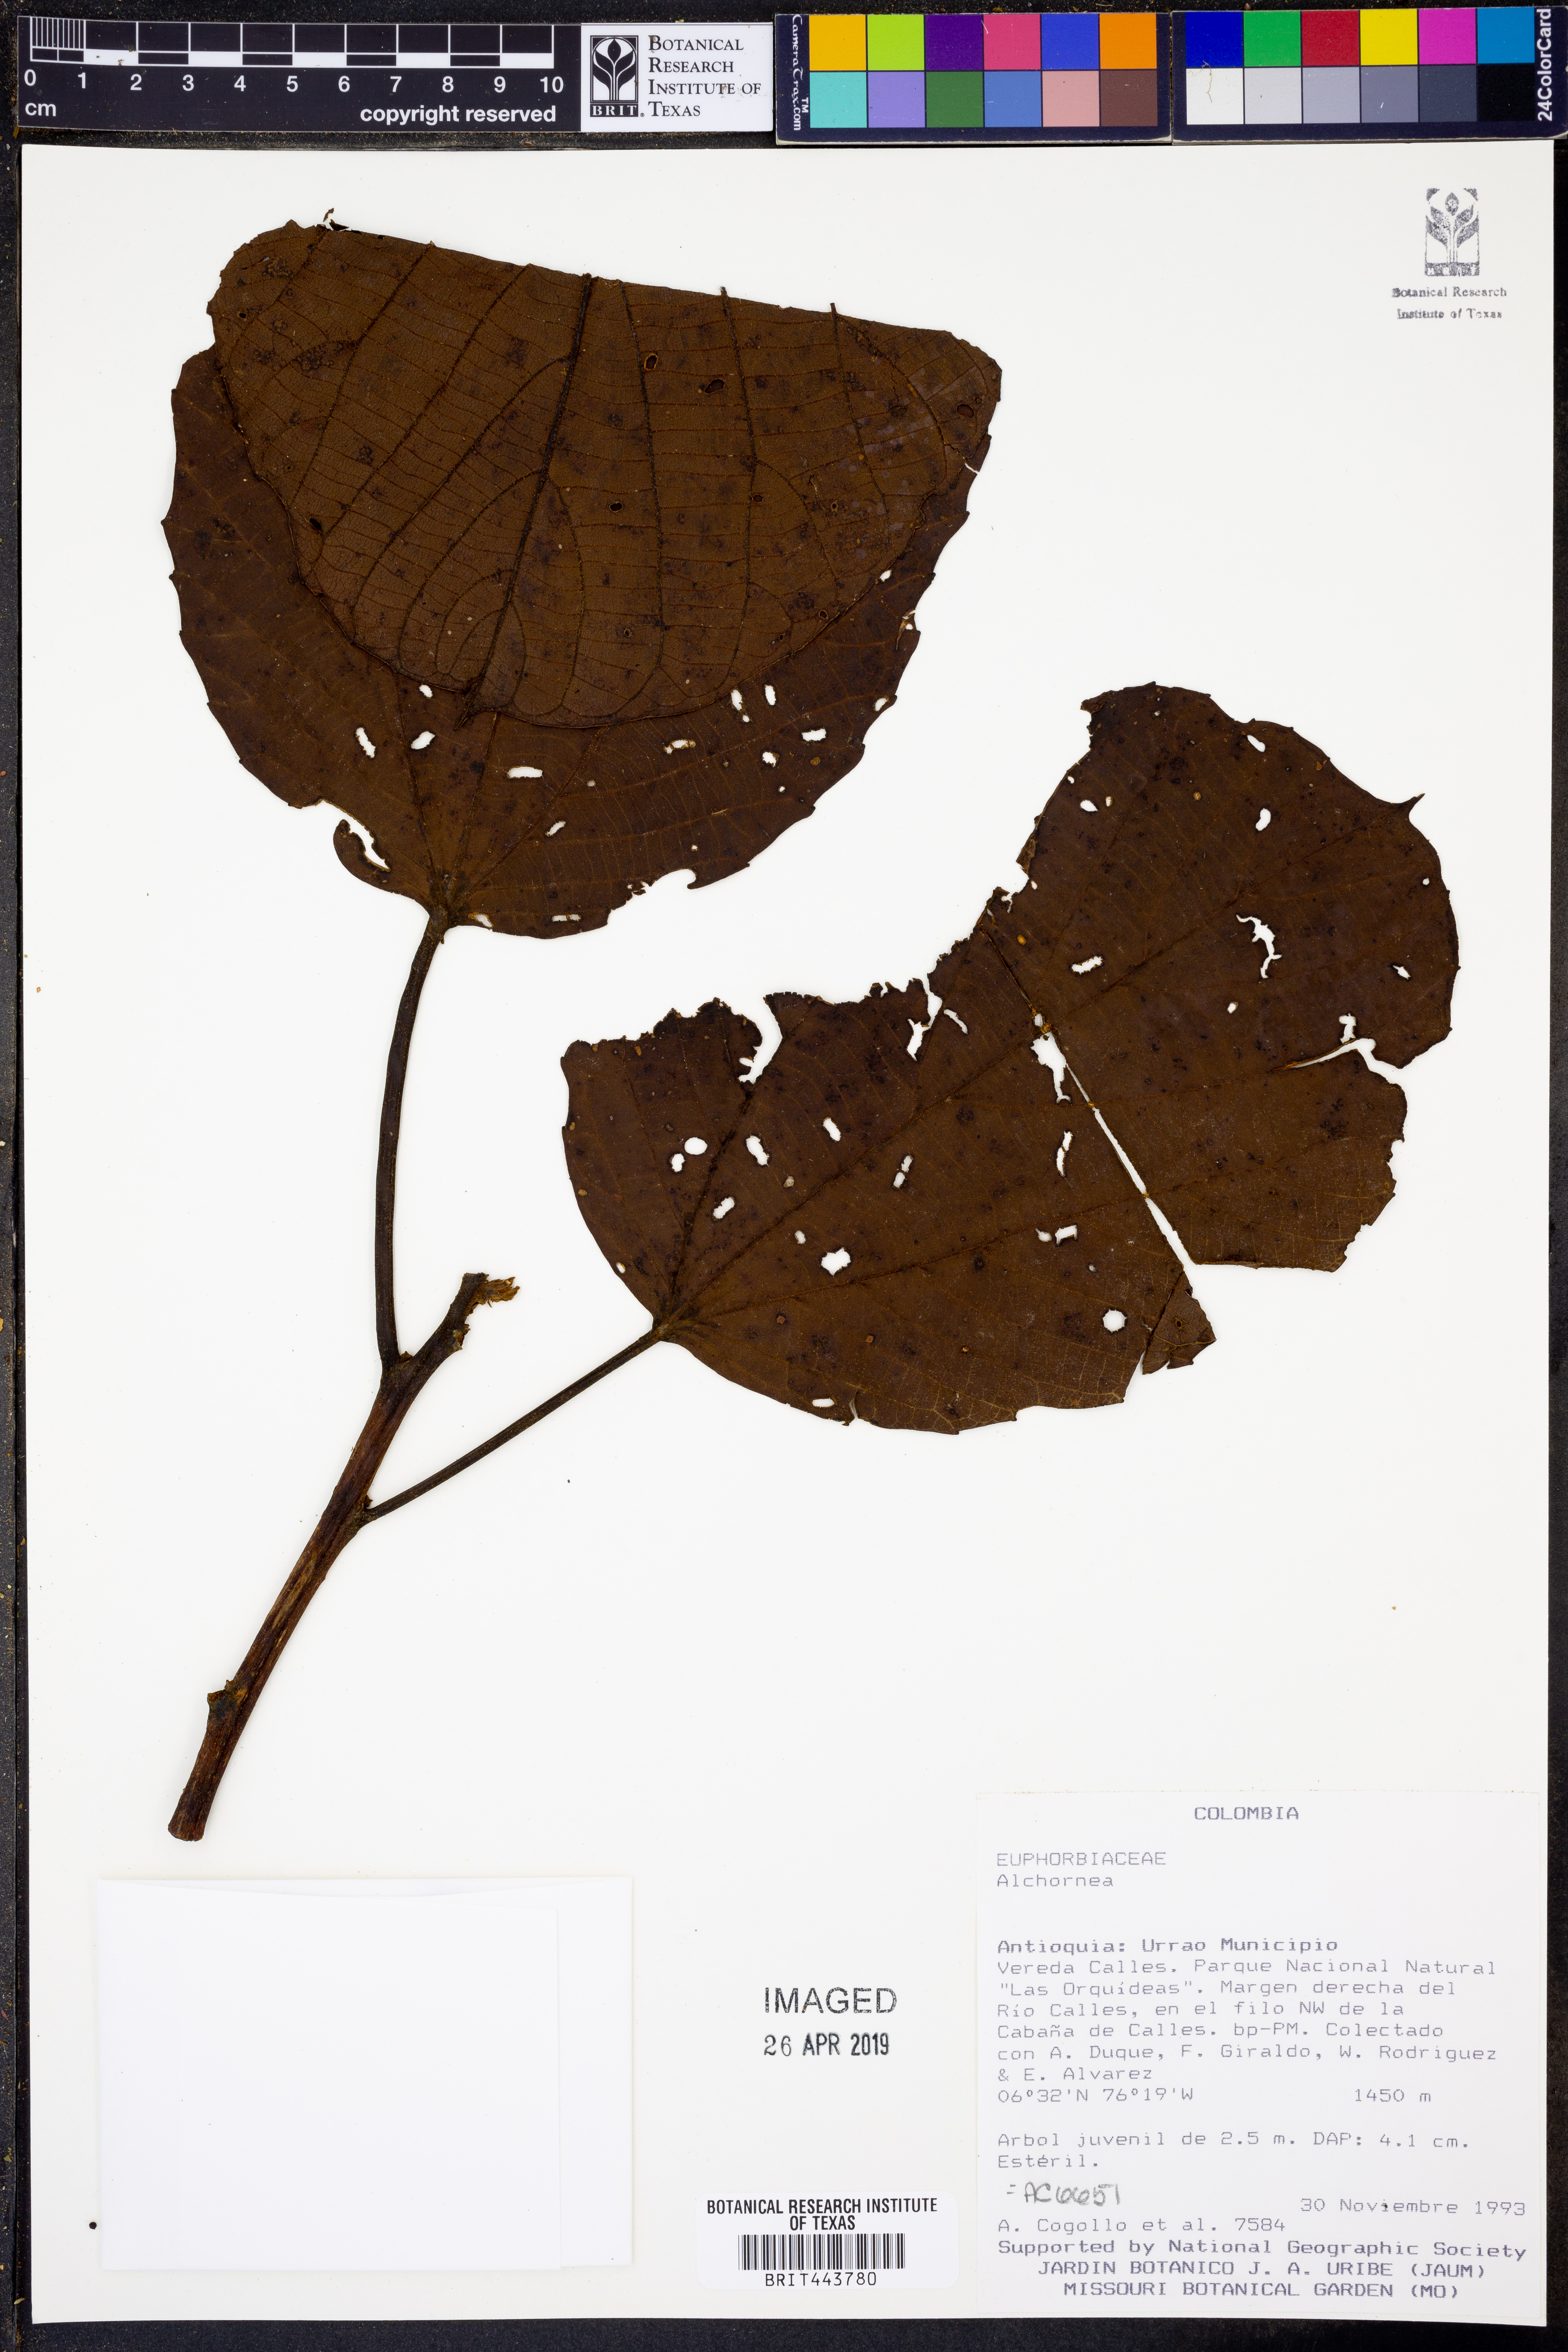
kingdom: Plantae
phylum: Tracheophyta
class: Magnoliopsida
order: Malpighiales
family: Euphorbiaceae
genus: Alchornea
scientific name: Alchornea
